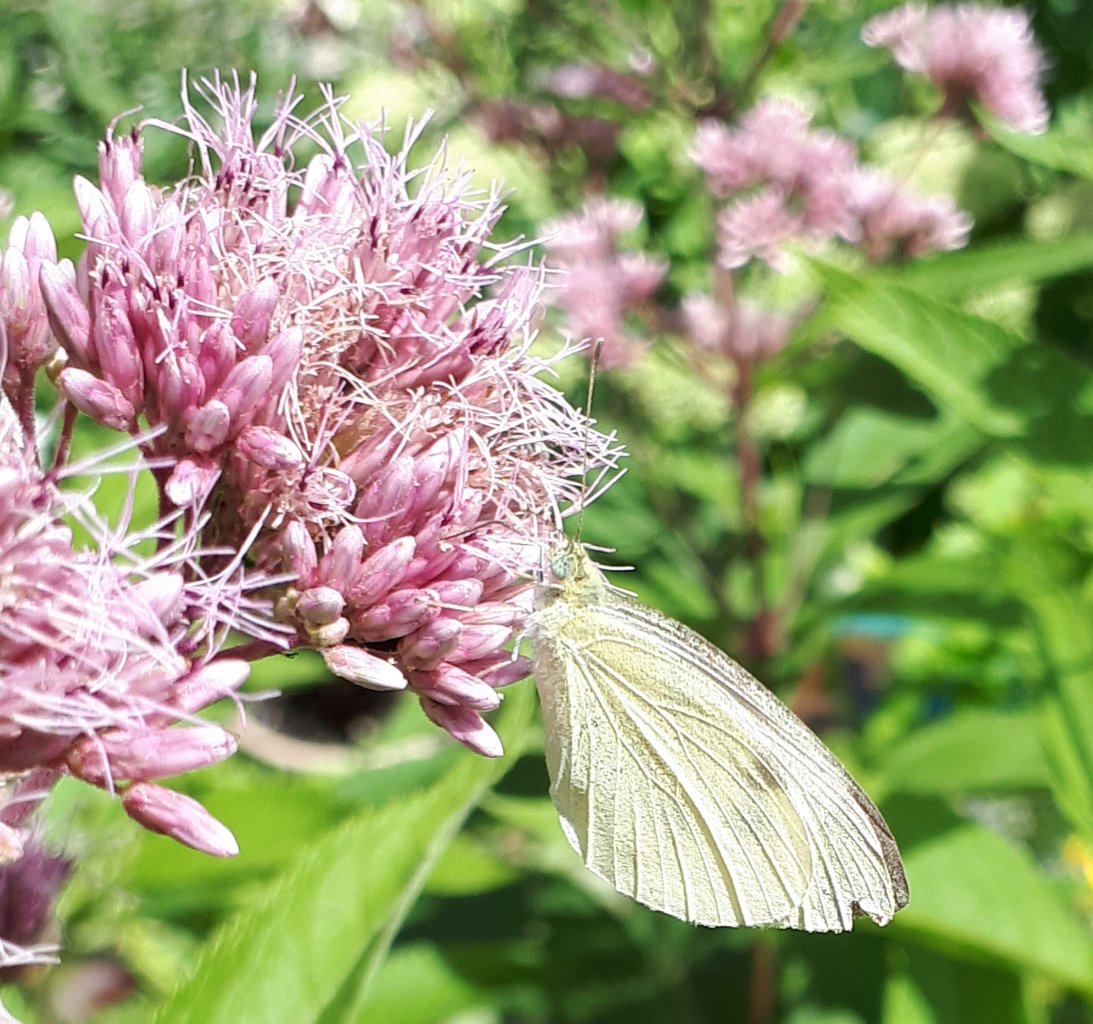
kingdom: Animalia
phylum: Arthropoda
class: Insecta
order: Lepidoptera
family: Pieridae
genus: Pieris
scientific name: Pieris rapae
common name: Cabbage White
